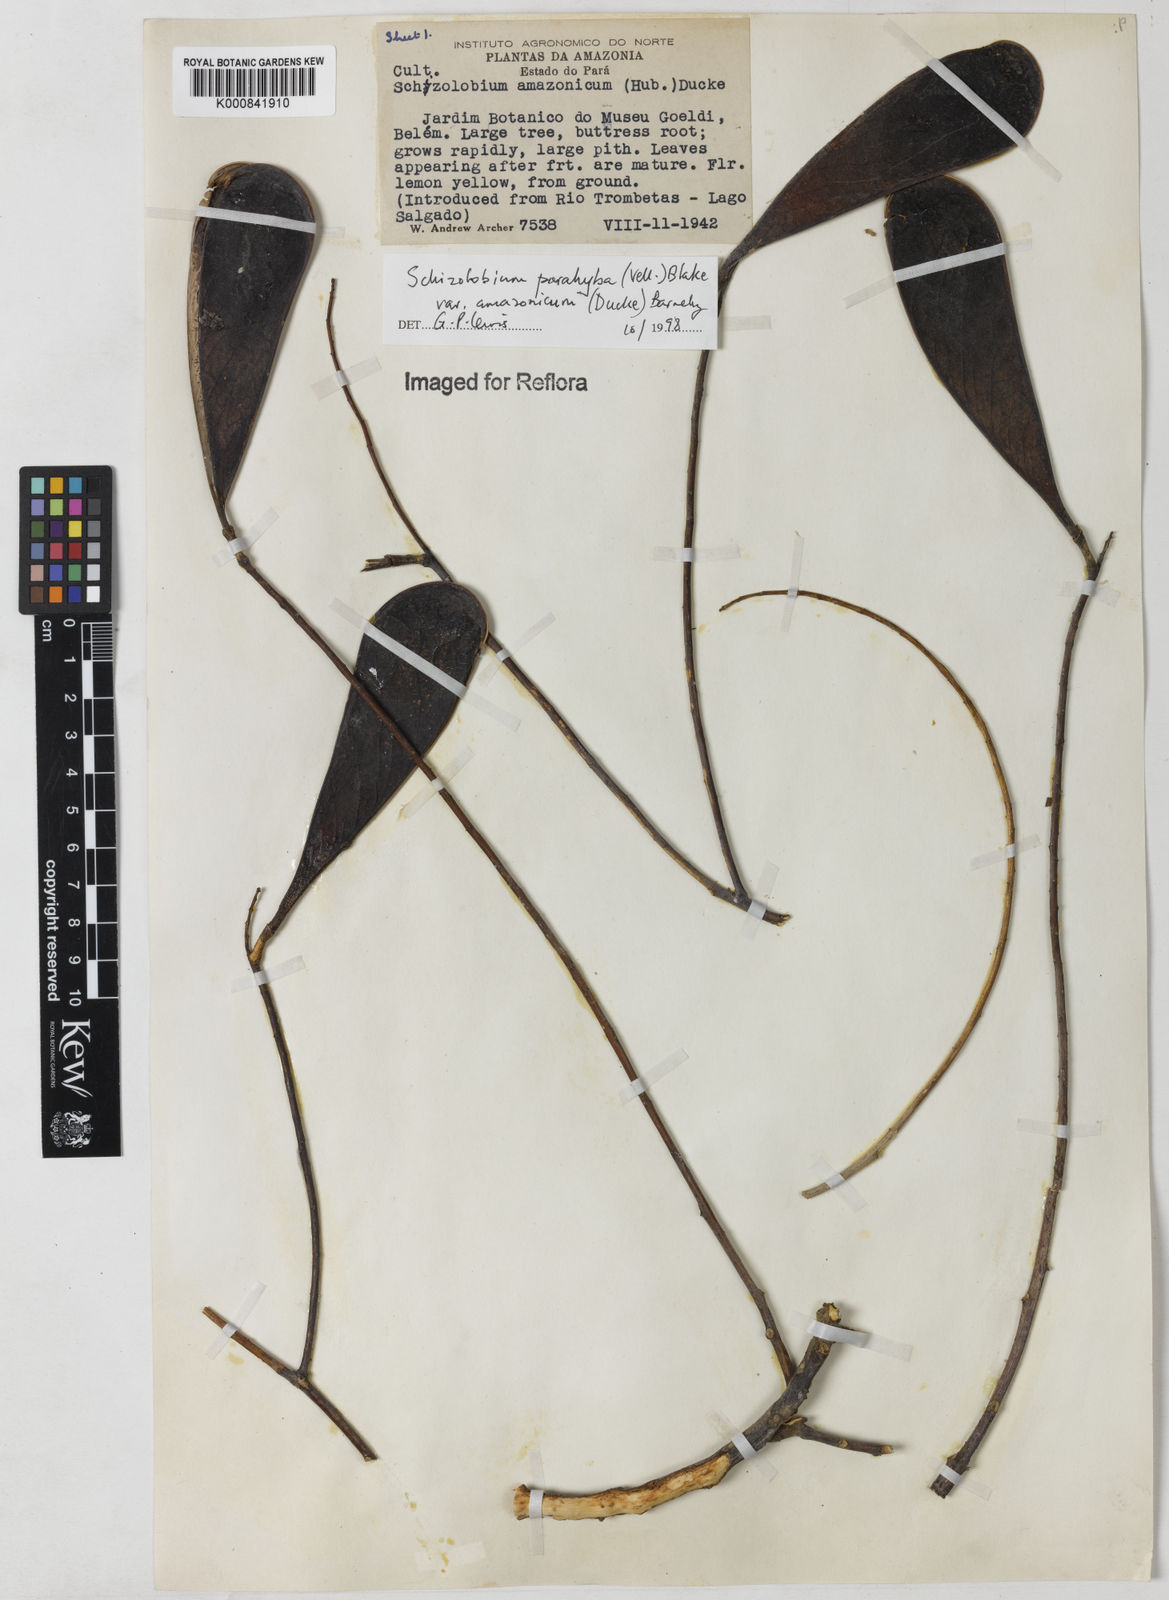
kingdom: Plantae
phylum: Tracheophyta
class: Magnoliopsida
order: Fabales
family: Fabaceae
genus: Schizolobium
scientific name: Schizolobium parahyba
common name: Brazilian firetree
